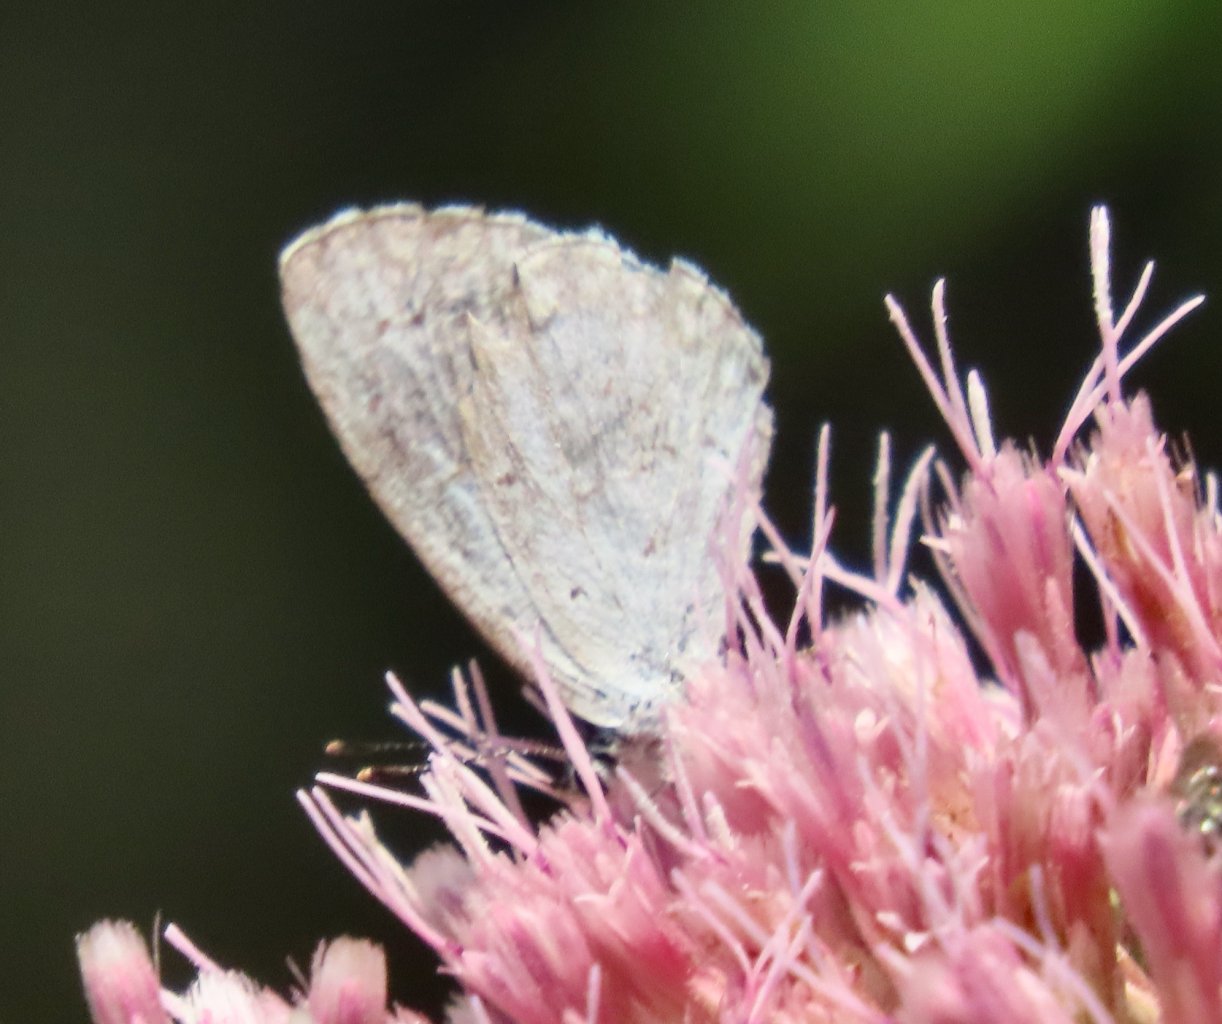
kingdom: Animalia
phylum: Arthropoda
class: Insecta
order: Lepidoptera
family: Lycaenidae
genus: Cyaniris
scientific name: Cyaniris neglecta
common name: Summer Azure
